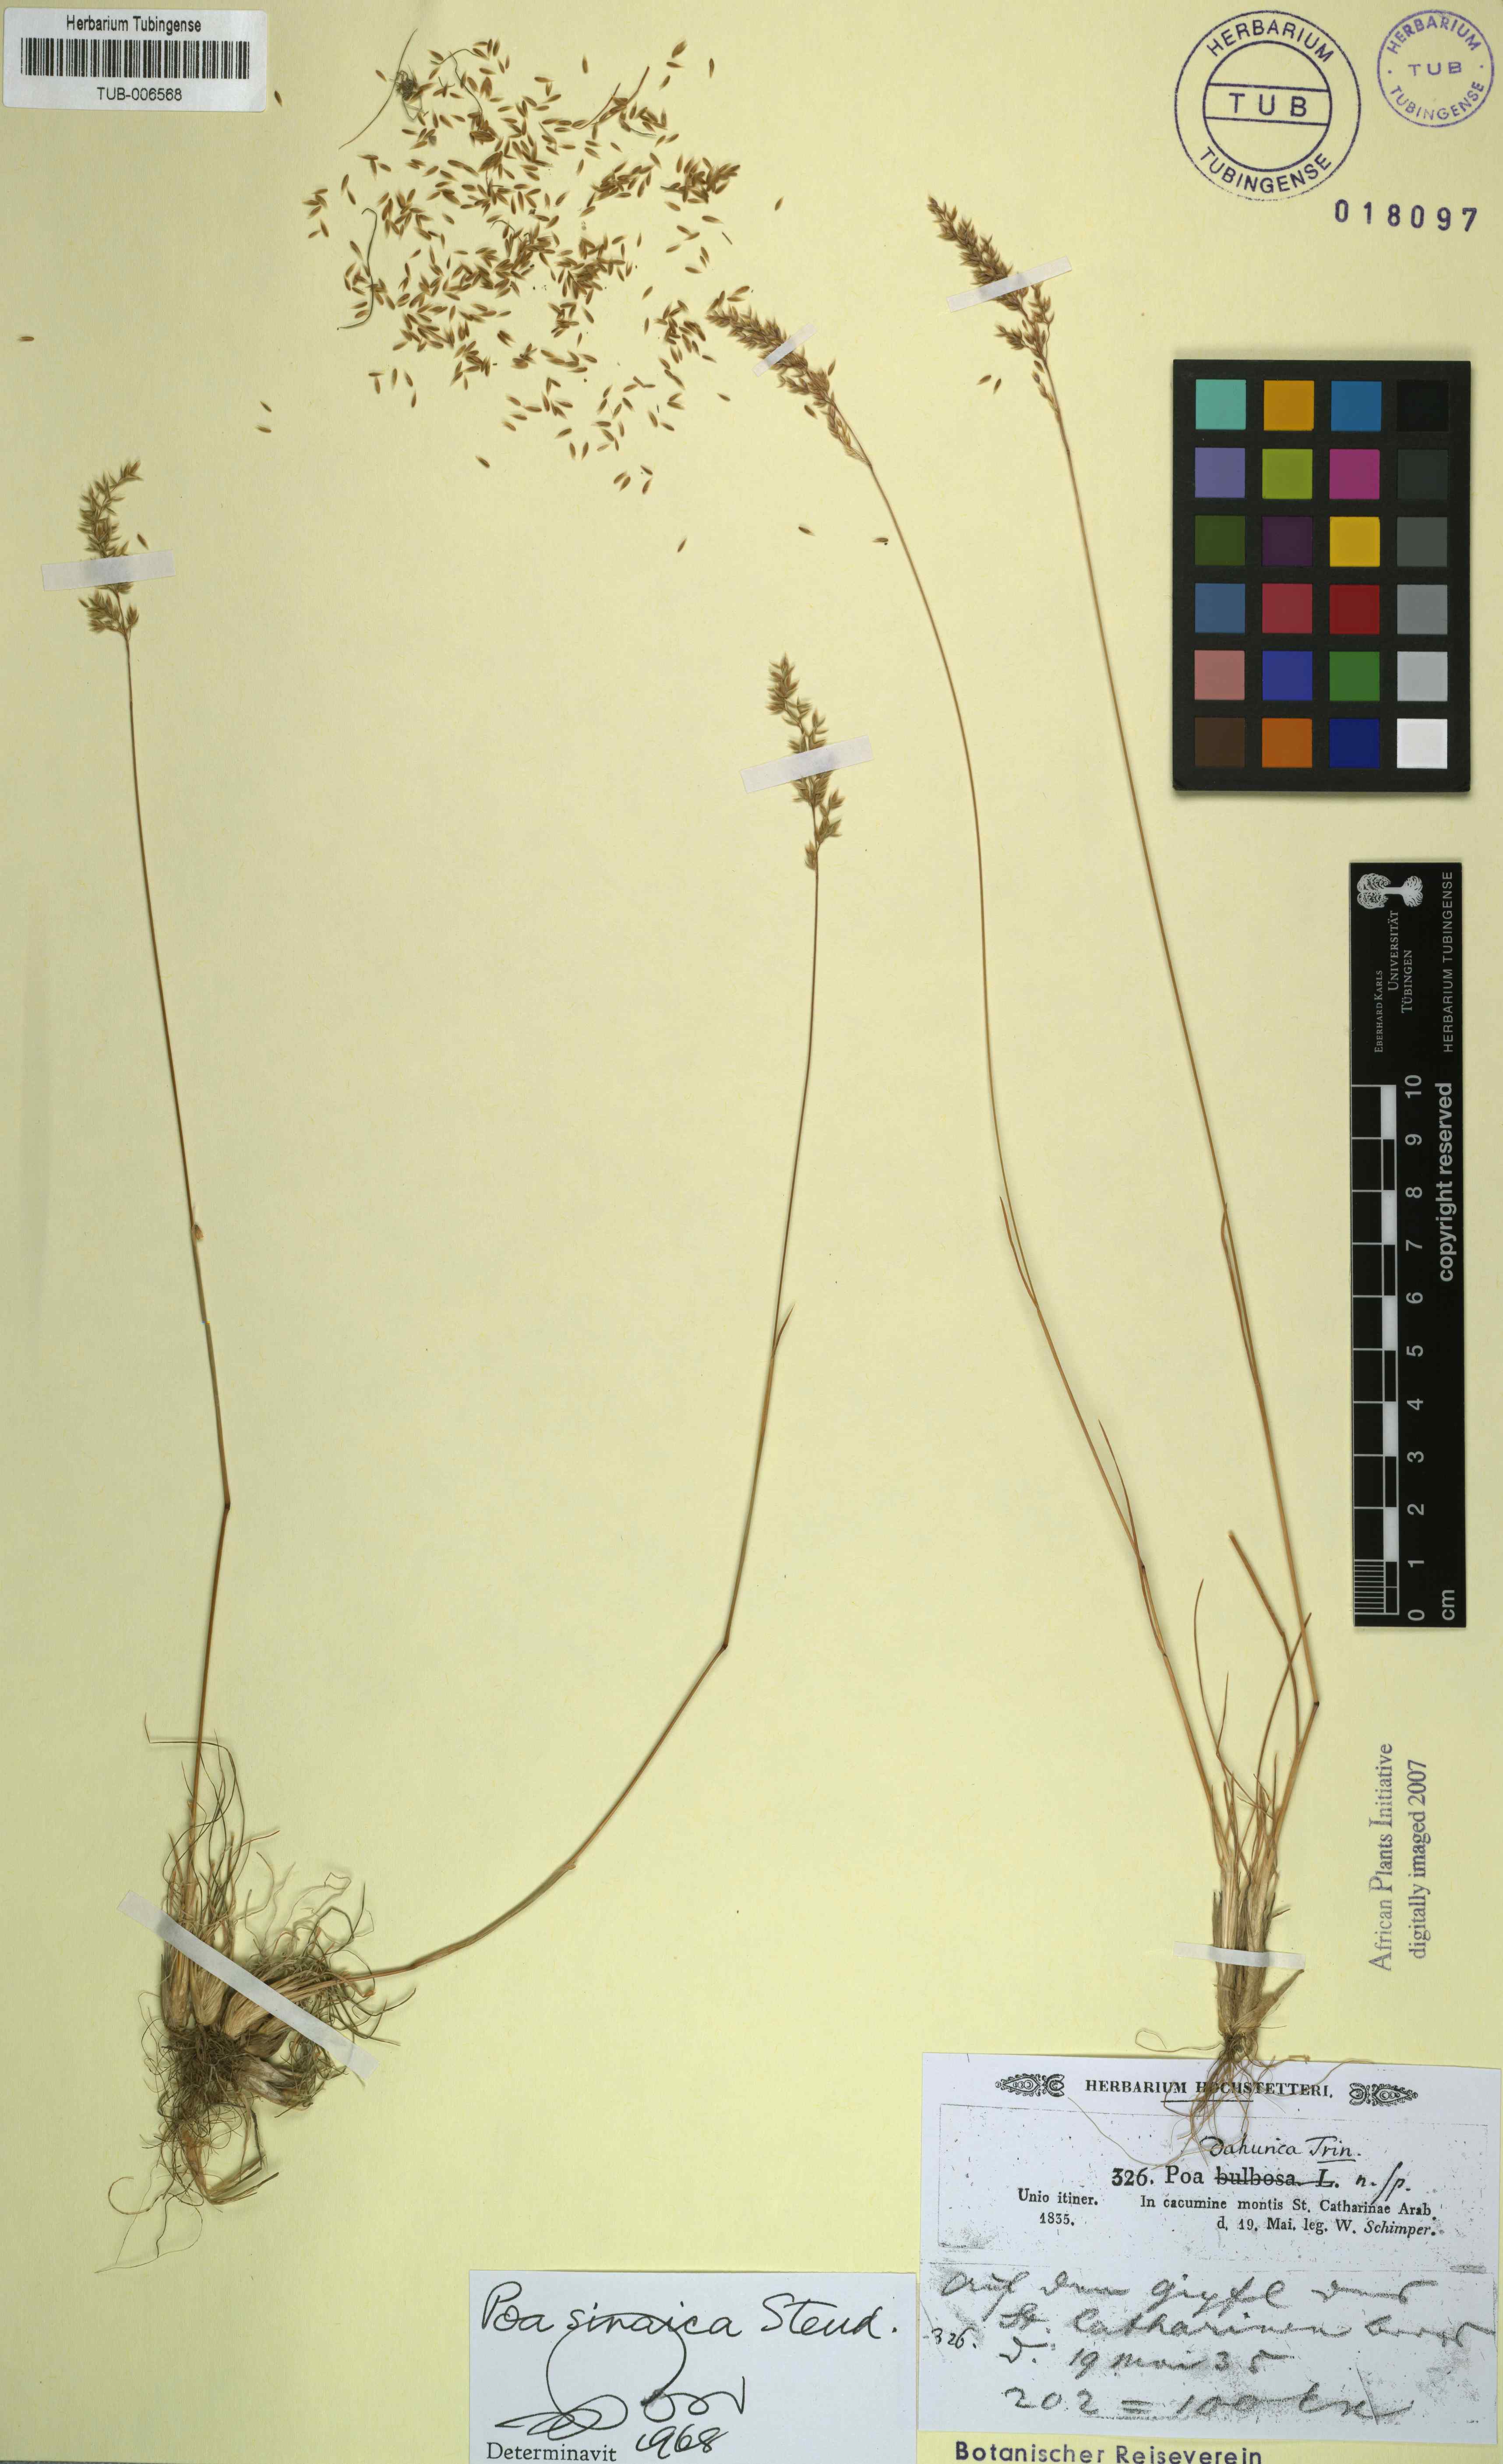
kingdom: Plantae
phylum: Tracheophyta
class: Liliopsida
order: Poales
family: Poaceae
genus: Poa
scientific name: Poa sinaica
